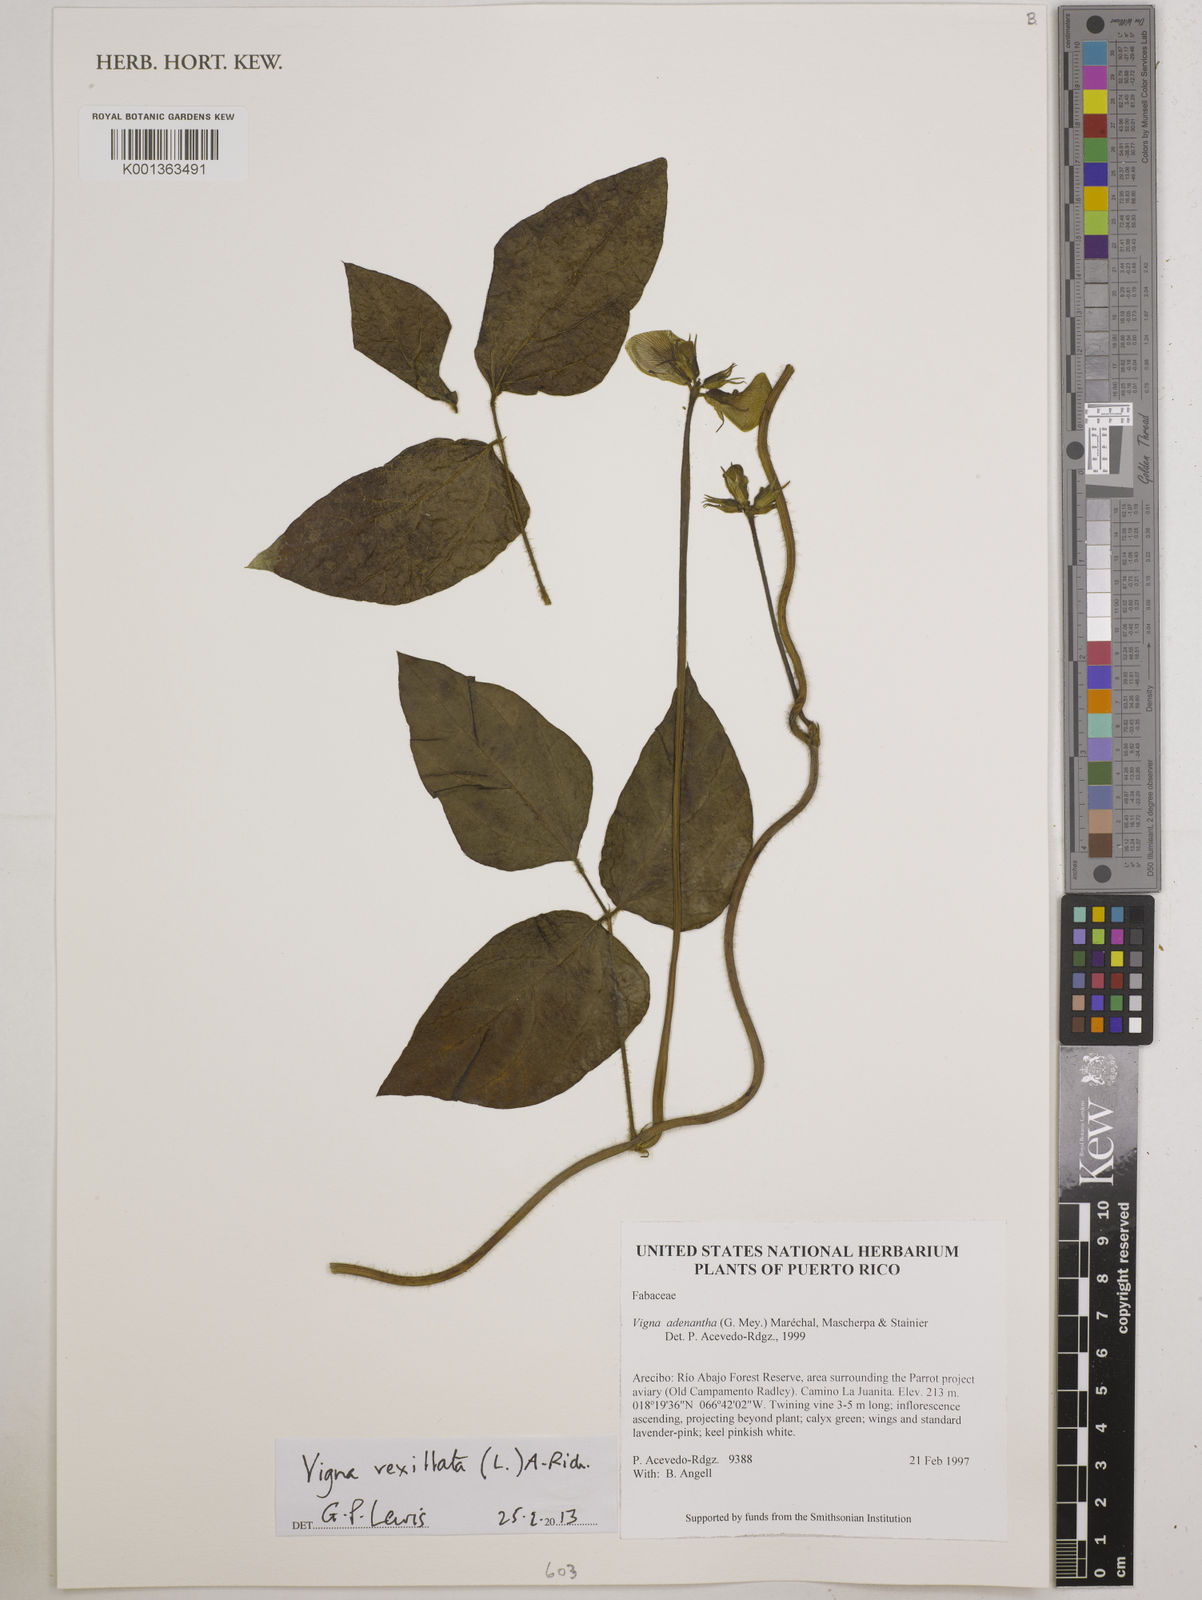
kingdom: Plantae
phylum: Tracheophyta
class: Magnoliopsida
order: Fabales
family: Fabaceae
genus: Vigna
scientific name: Vigna vexillata
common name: Zombi pea
